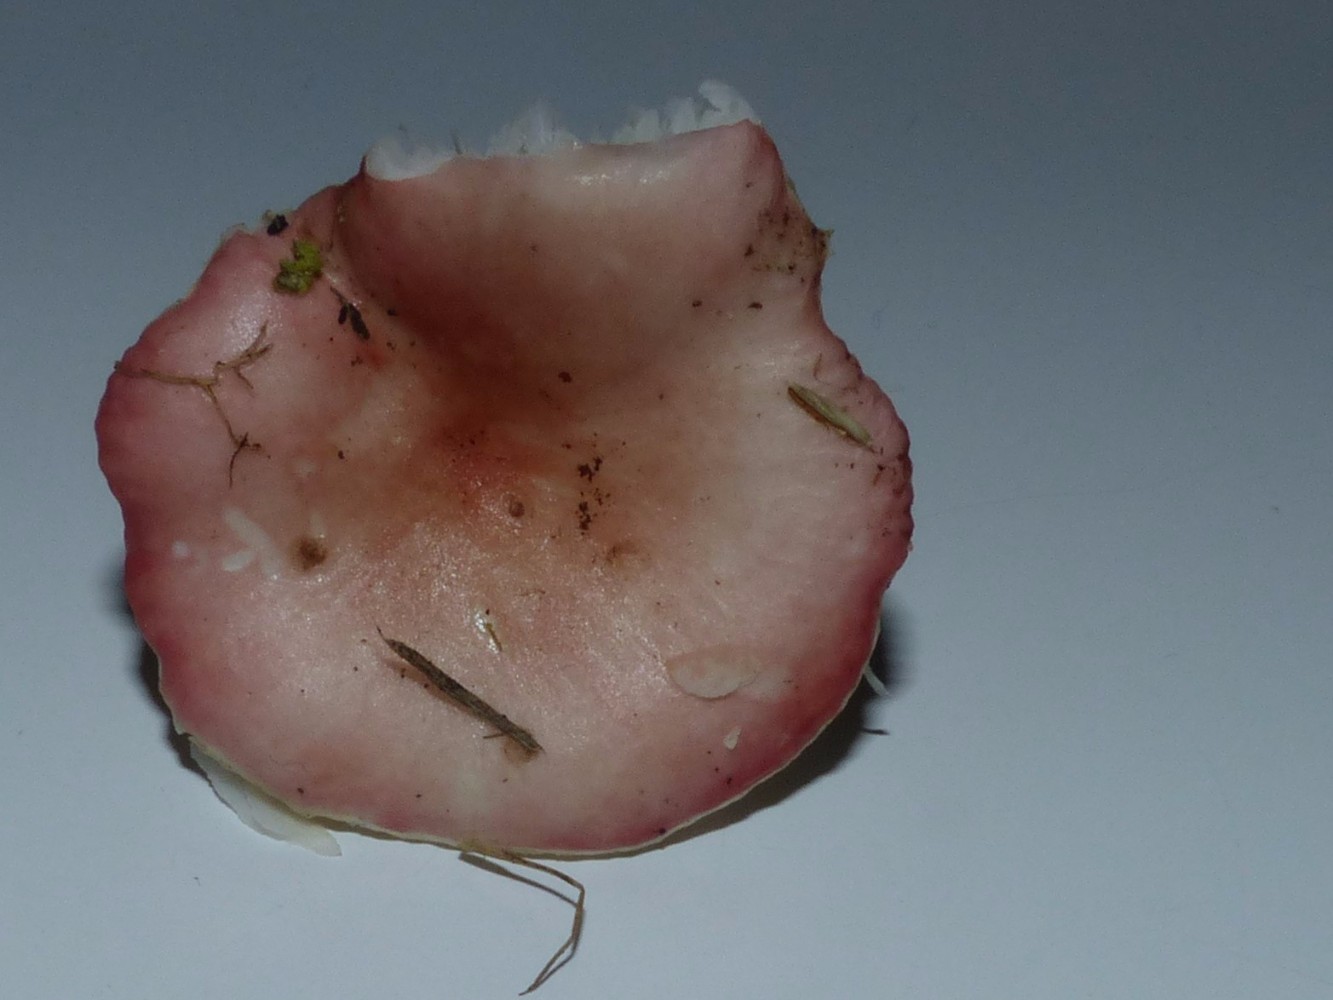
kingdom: Fungi
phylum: Basidiomycota
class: Agaricomycetes
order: Russulales
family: Russulaceae
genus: Russula
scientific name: Russula betularum
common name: bleg gift-skørhat
